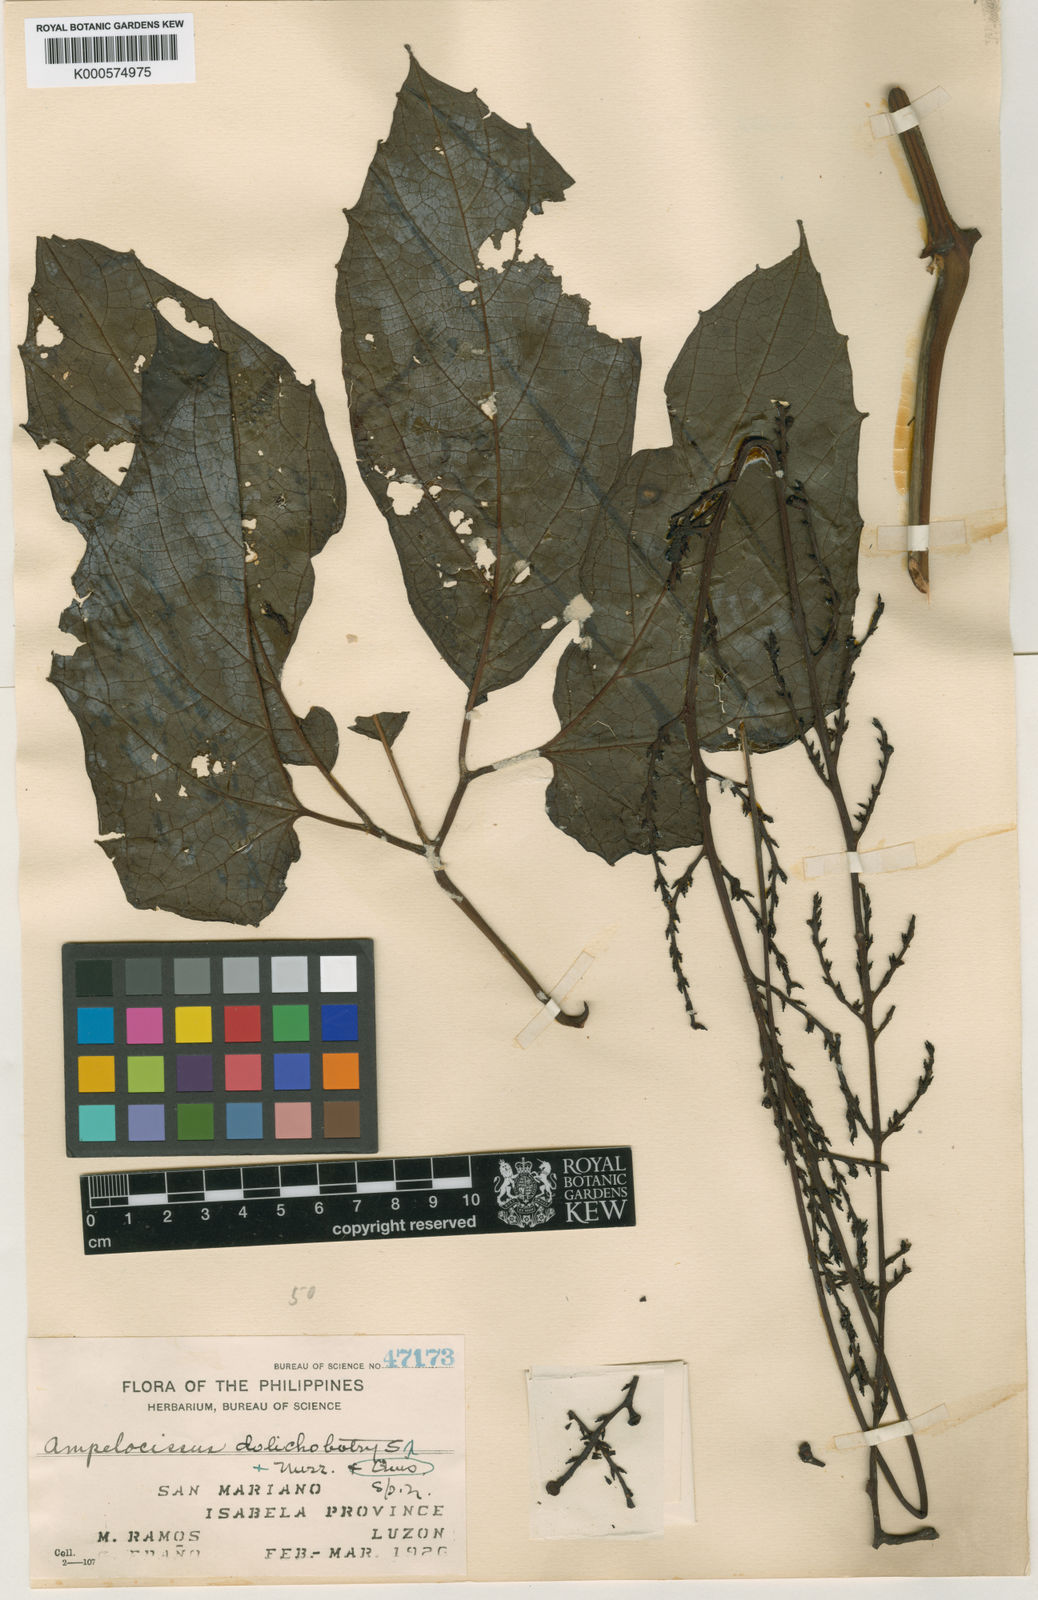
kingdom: Plantae
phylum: Tracheophyta
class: Magnoliopsida
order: Vitales
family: Vitaceae
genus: Ampelocissus
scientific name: Ampelocissus dolichobotrys
